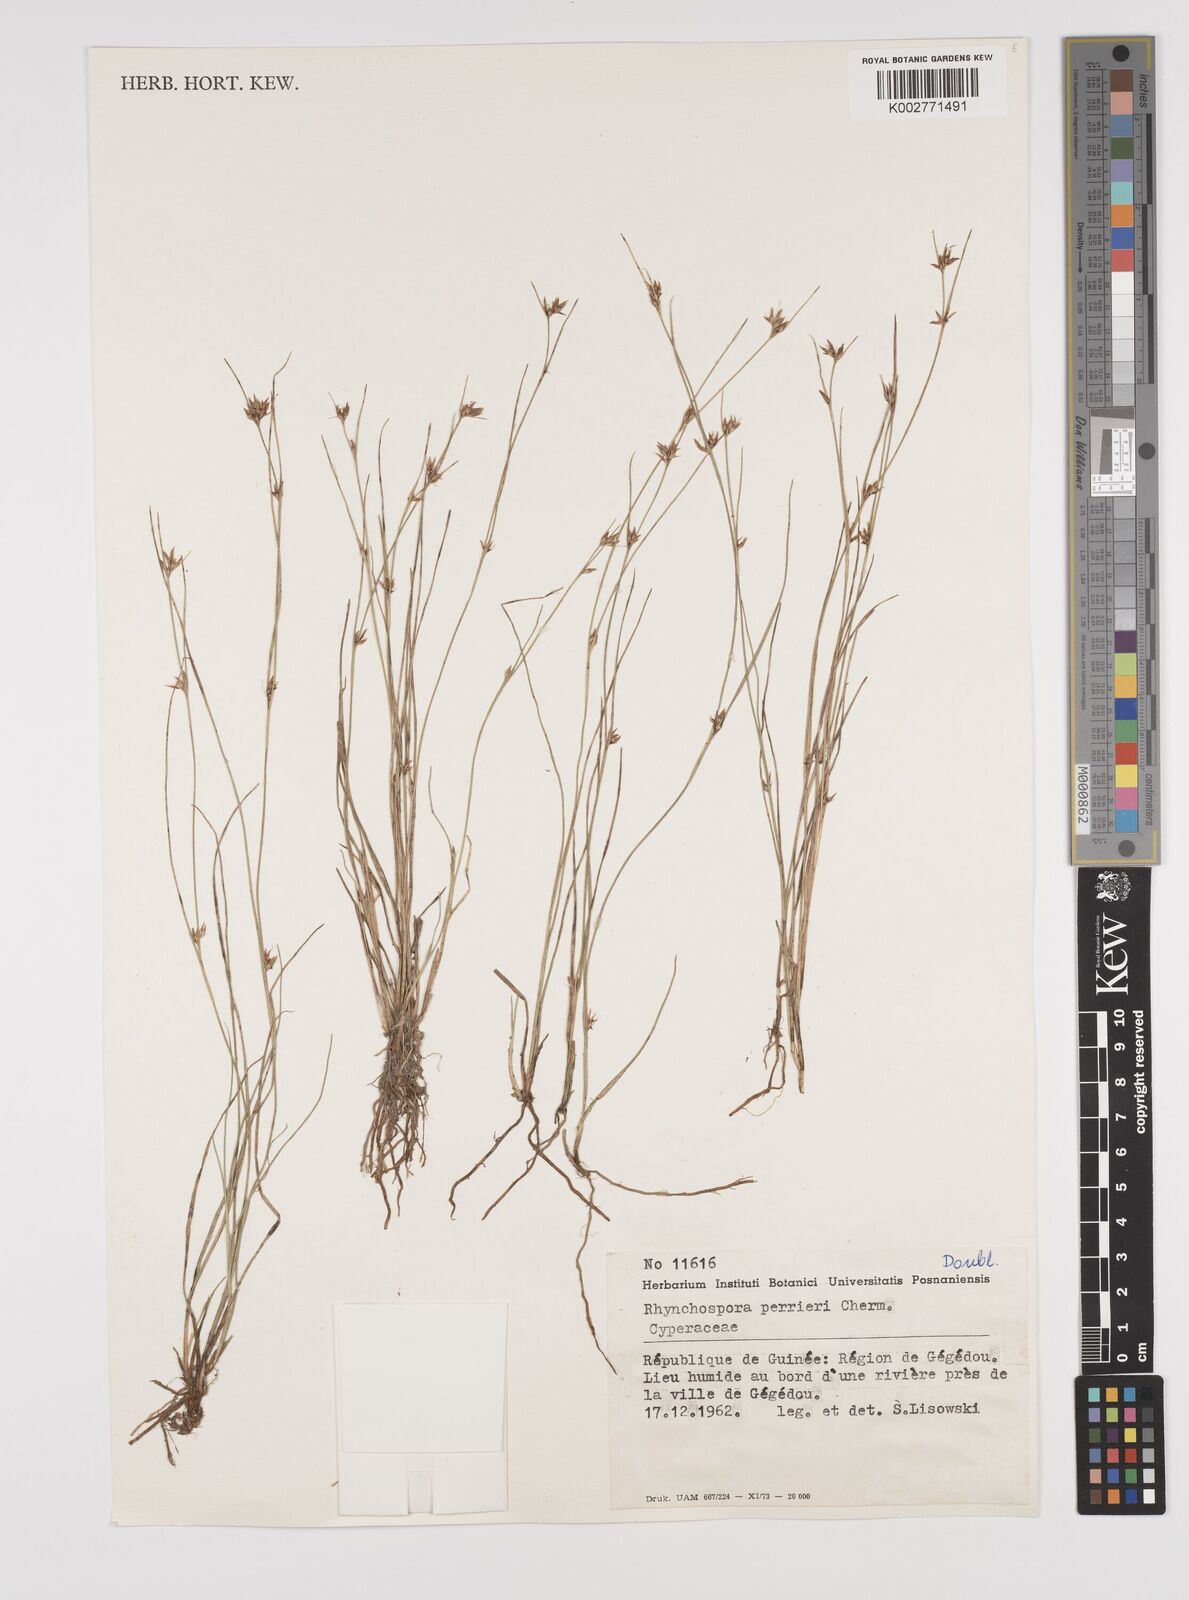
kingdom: Plantae
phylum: Tracheophyta
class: Liliopsida
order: Poales
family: Cyperaceae
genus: Rhynchospora
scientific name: Rhynchospora perrieri
